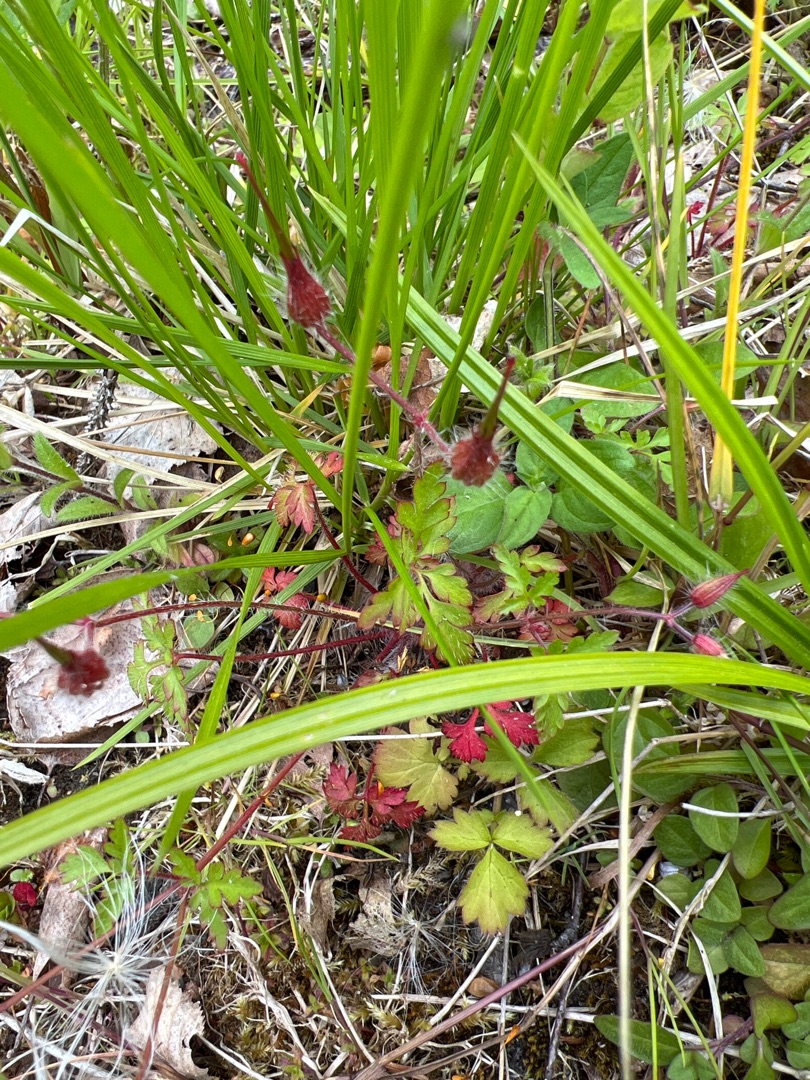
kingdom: Plantae
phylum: Tracheophyta
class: Magnoliopsida
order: Geraniales
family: Geraniaceae
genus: Geranium
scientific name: Geranium robertianum
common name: Stinkende storkenæb
